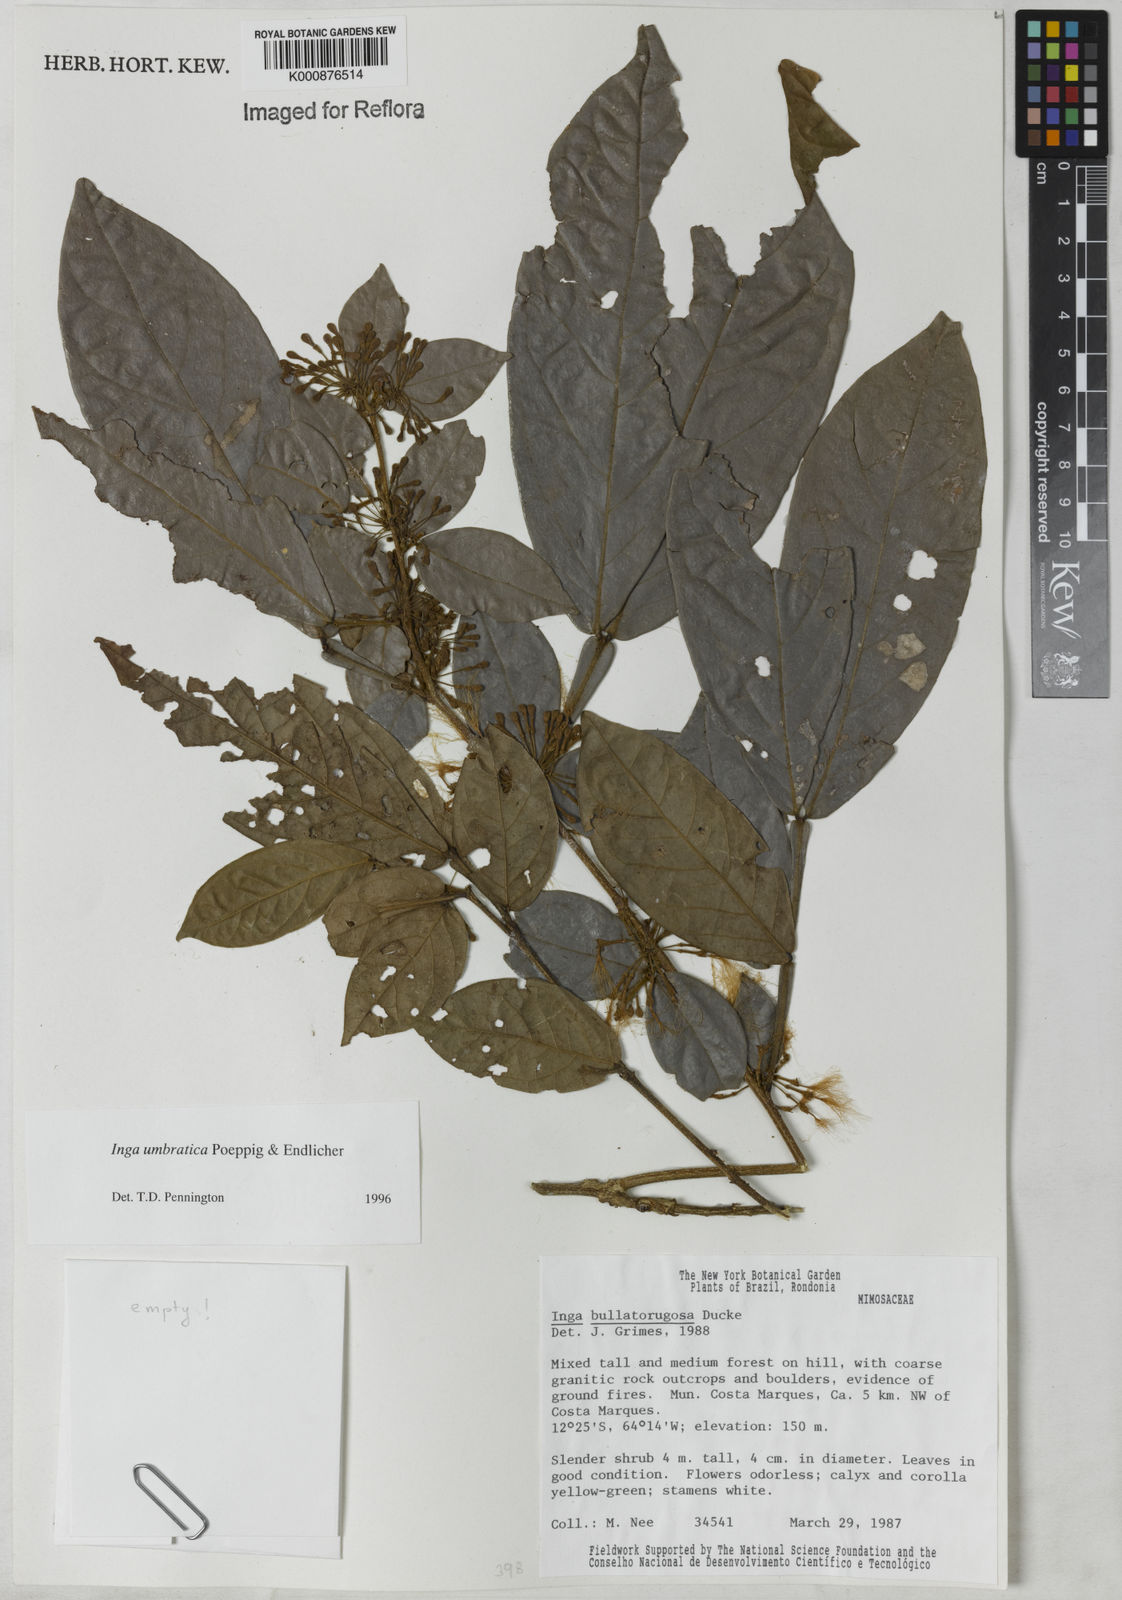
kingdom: Plantae
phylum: Tracheophyta
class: Magnoliopsida
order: Fabales
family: Fabaceae
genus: Inga
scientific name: Inga umbratica
